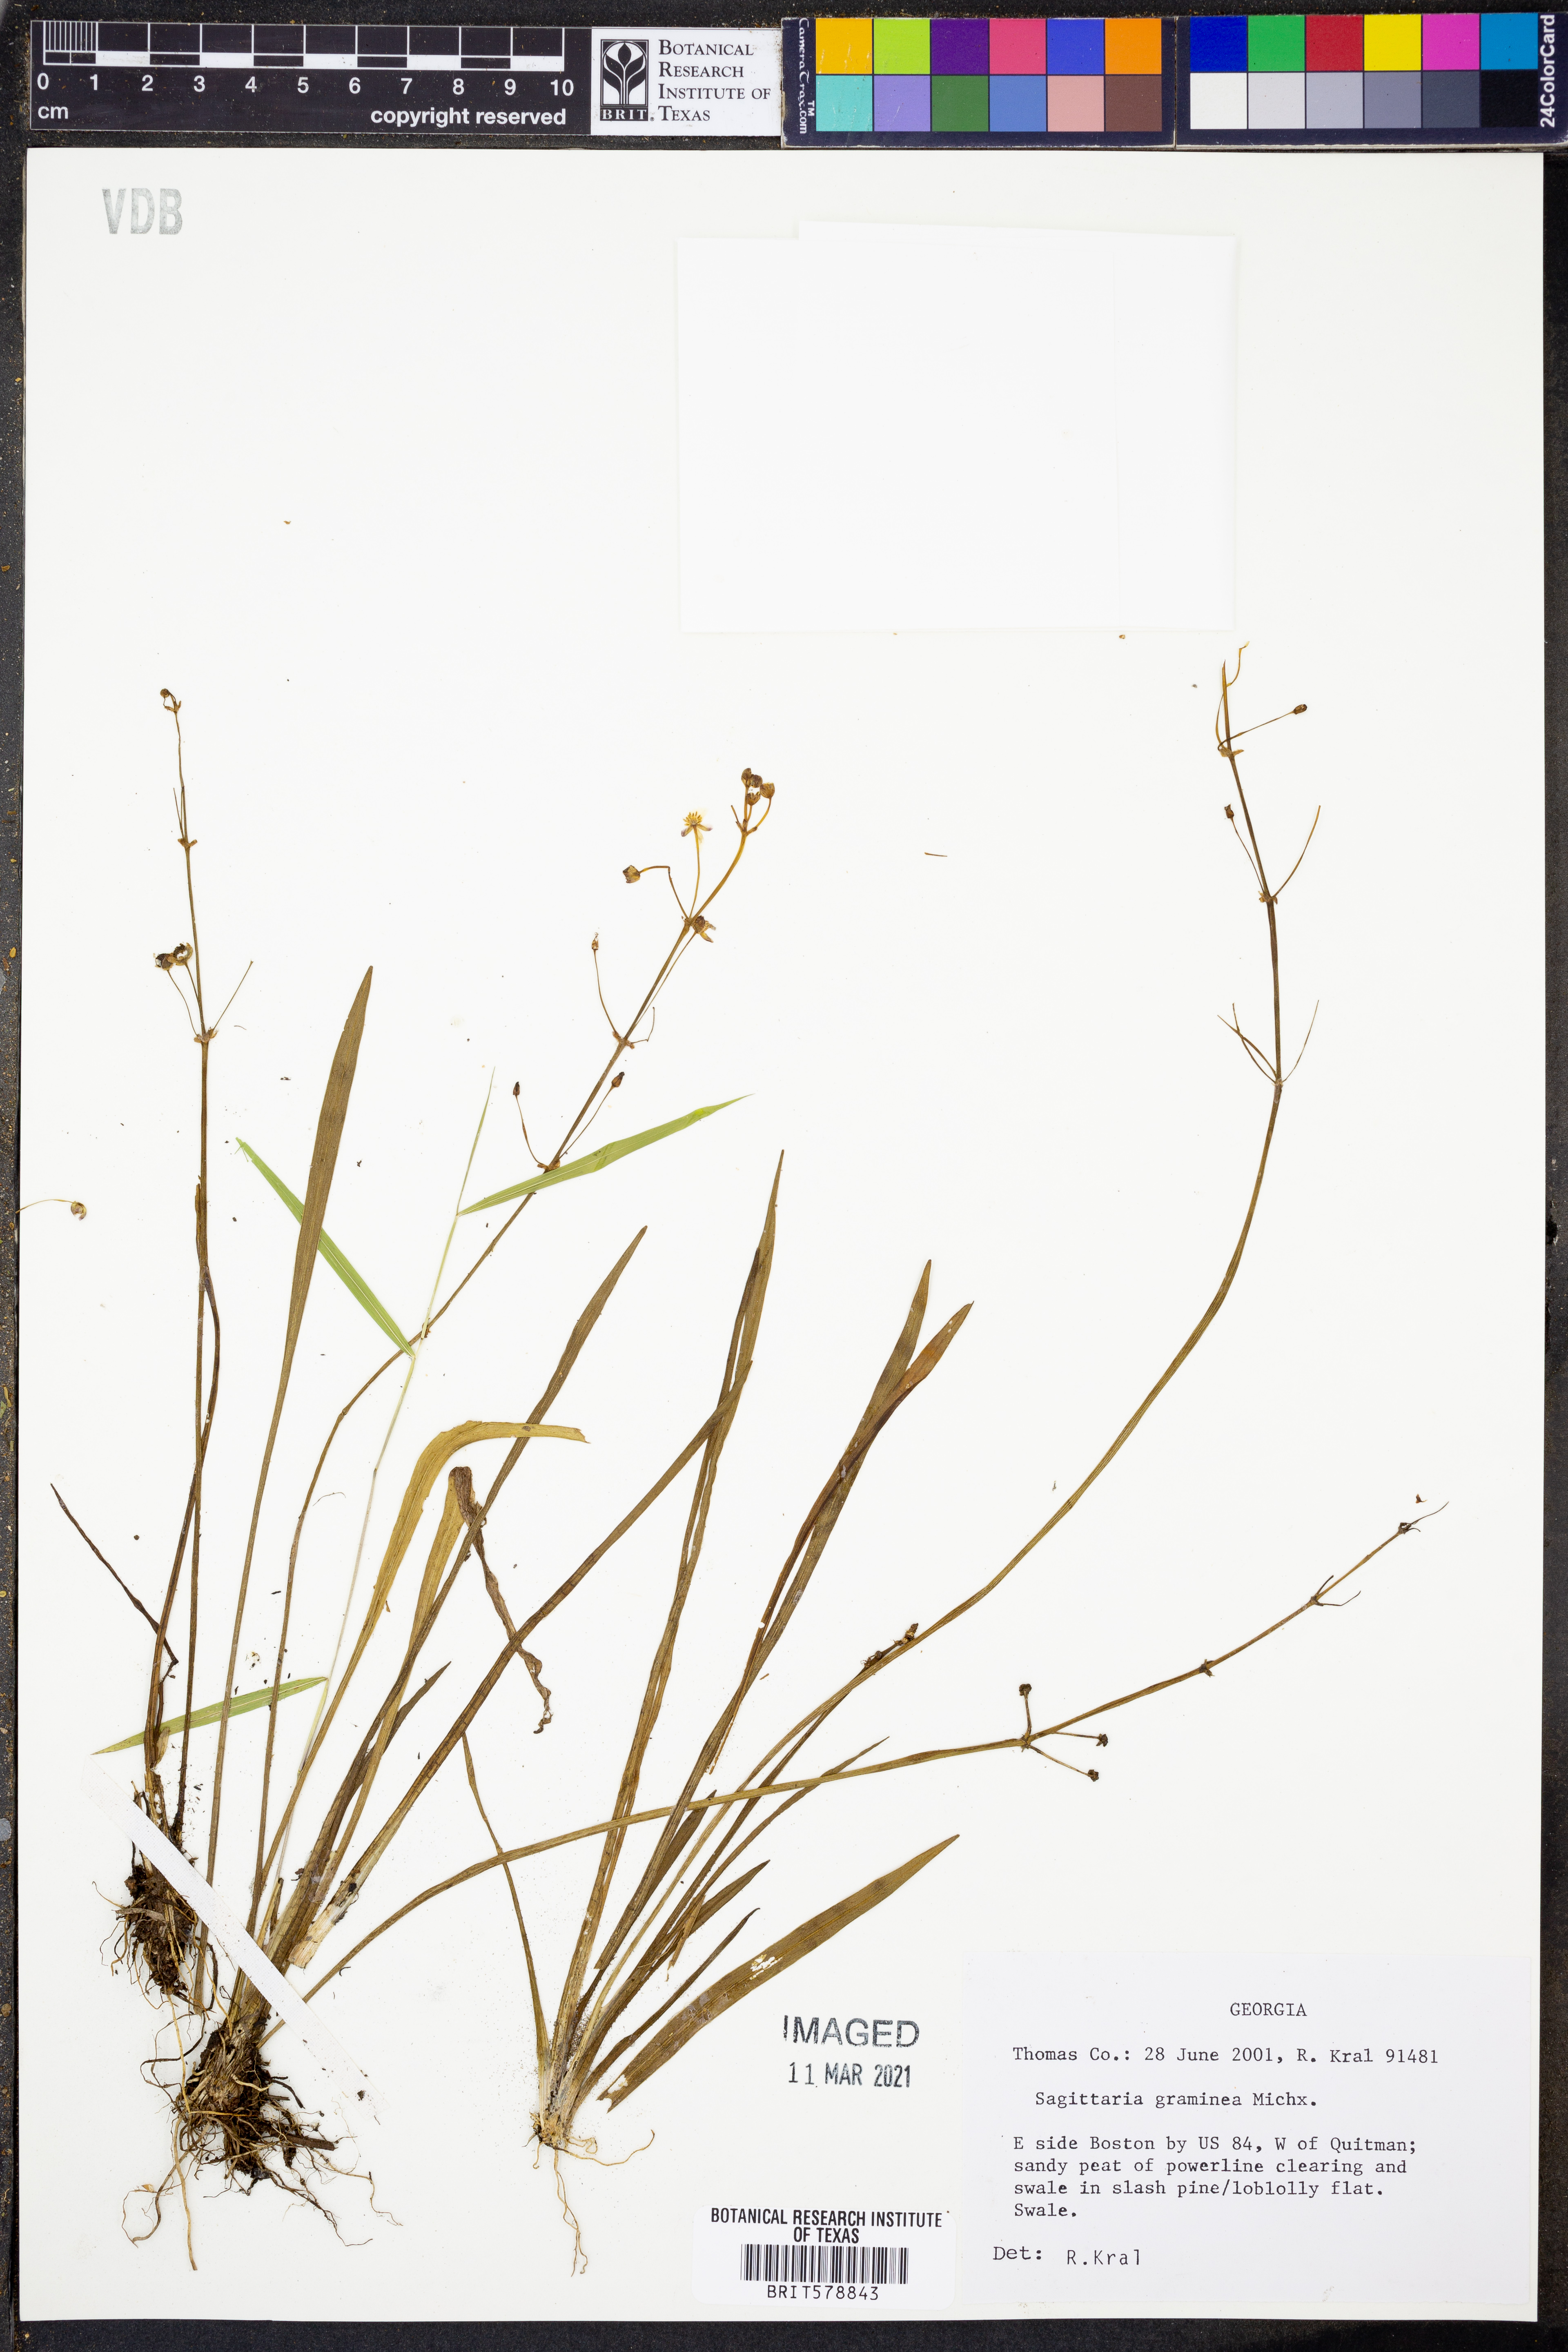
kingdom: Plantae
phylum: Tracheophyta
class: Liliopsida
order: Alismatales
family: Alismataceae
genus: Sagittaria
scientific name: Sagittaria graminea
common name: Grass-leaved arrowhead
